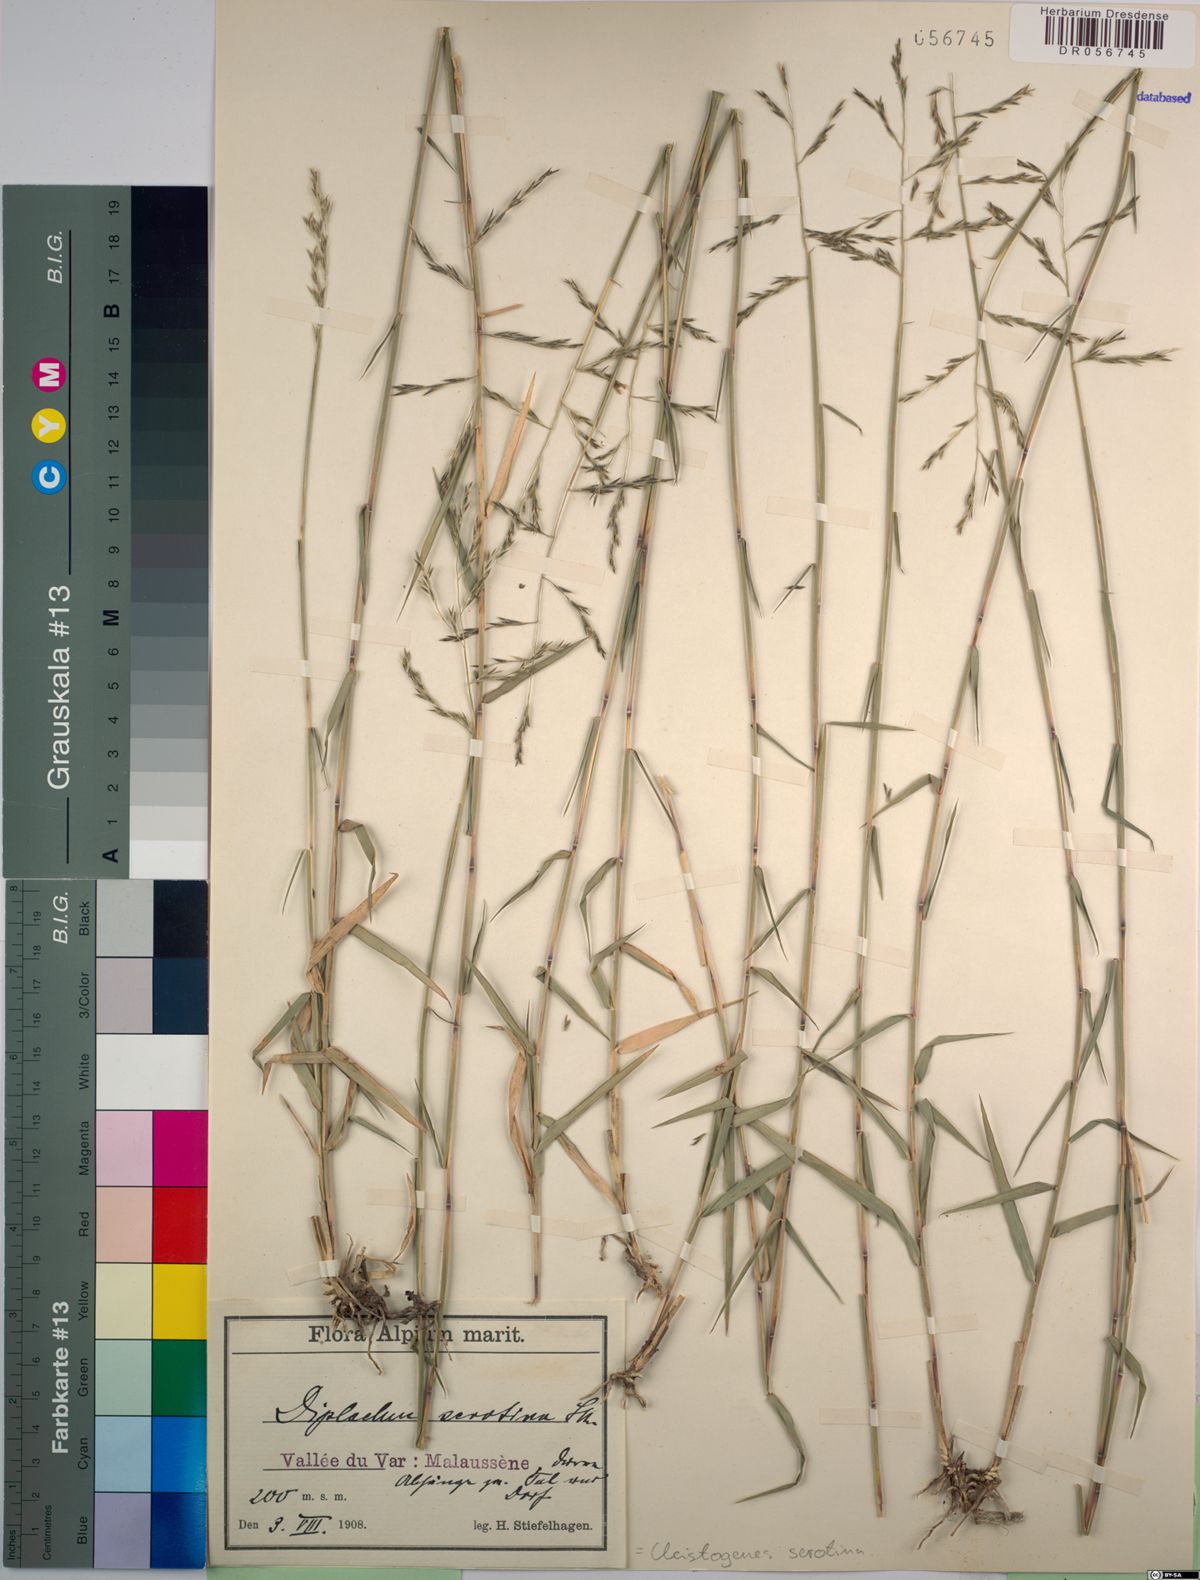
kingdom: Plantae
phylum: Tracheophyta
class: Liliopsida
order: Poales
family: Poaceae
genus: Cleistogenes
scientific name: Cleistogenes serotina
